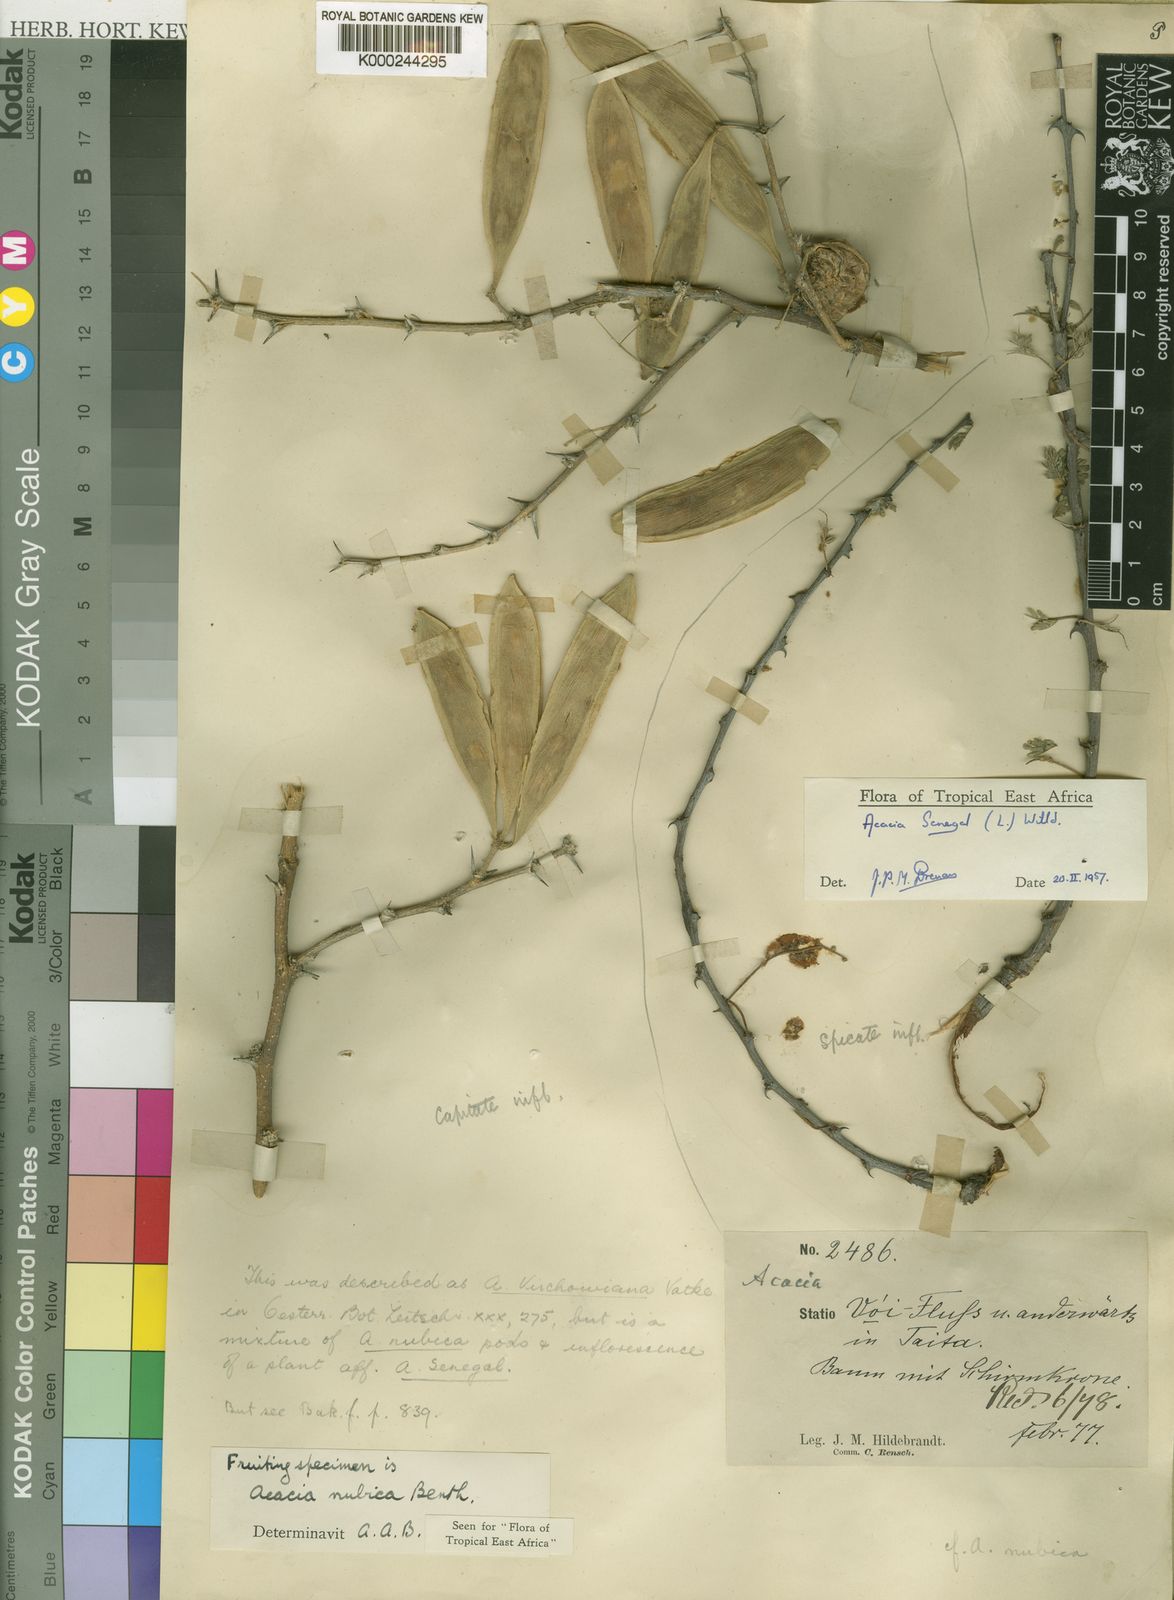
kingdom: Plantae
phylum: Tracheophyta
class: Magnoliopsida
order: Fabales
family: Fabaceae
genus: Vachellia
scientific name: Vachellia oerfota
